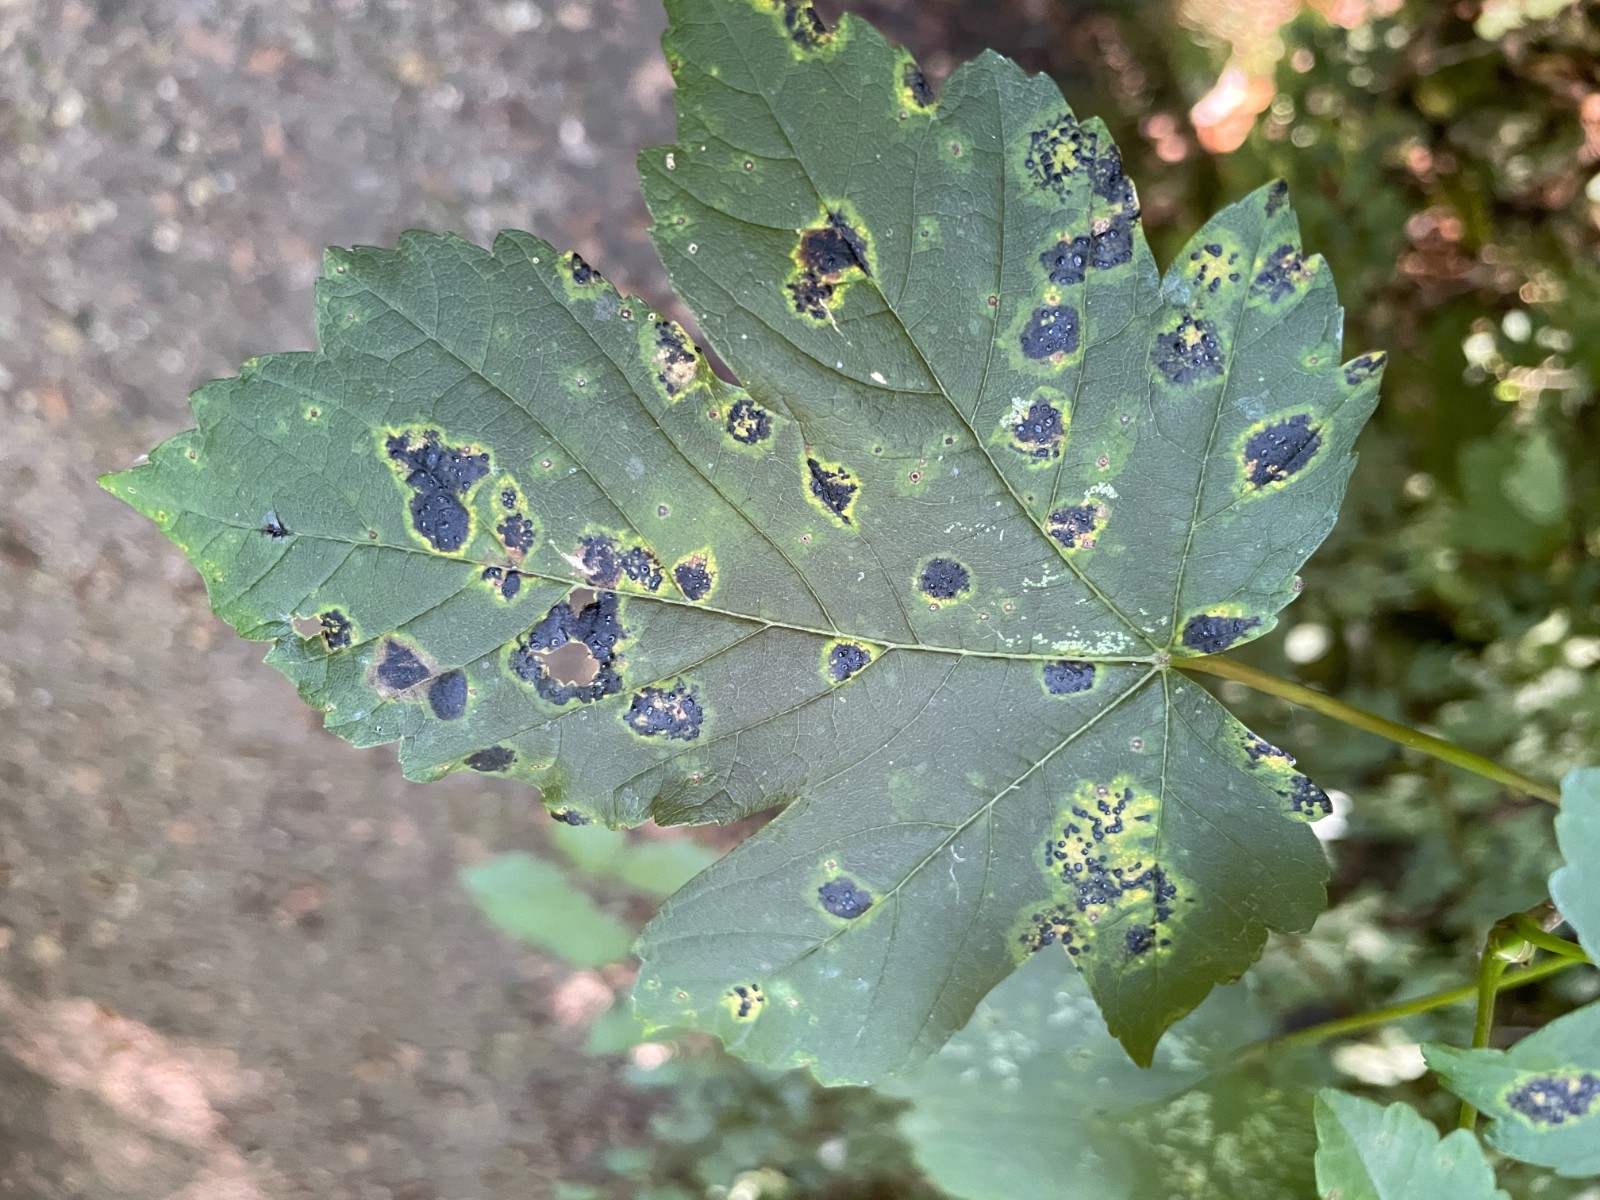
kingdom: Fungi
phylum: Ascomycota
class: Leotiomycetes
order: Rhytismatales
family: Rhytismataceae
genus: Rhytisma
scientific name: Rhytisma acerinum
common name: ahorn-rynkeplet
